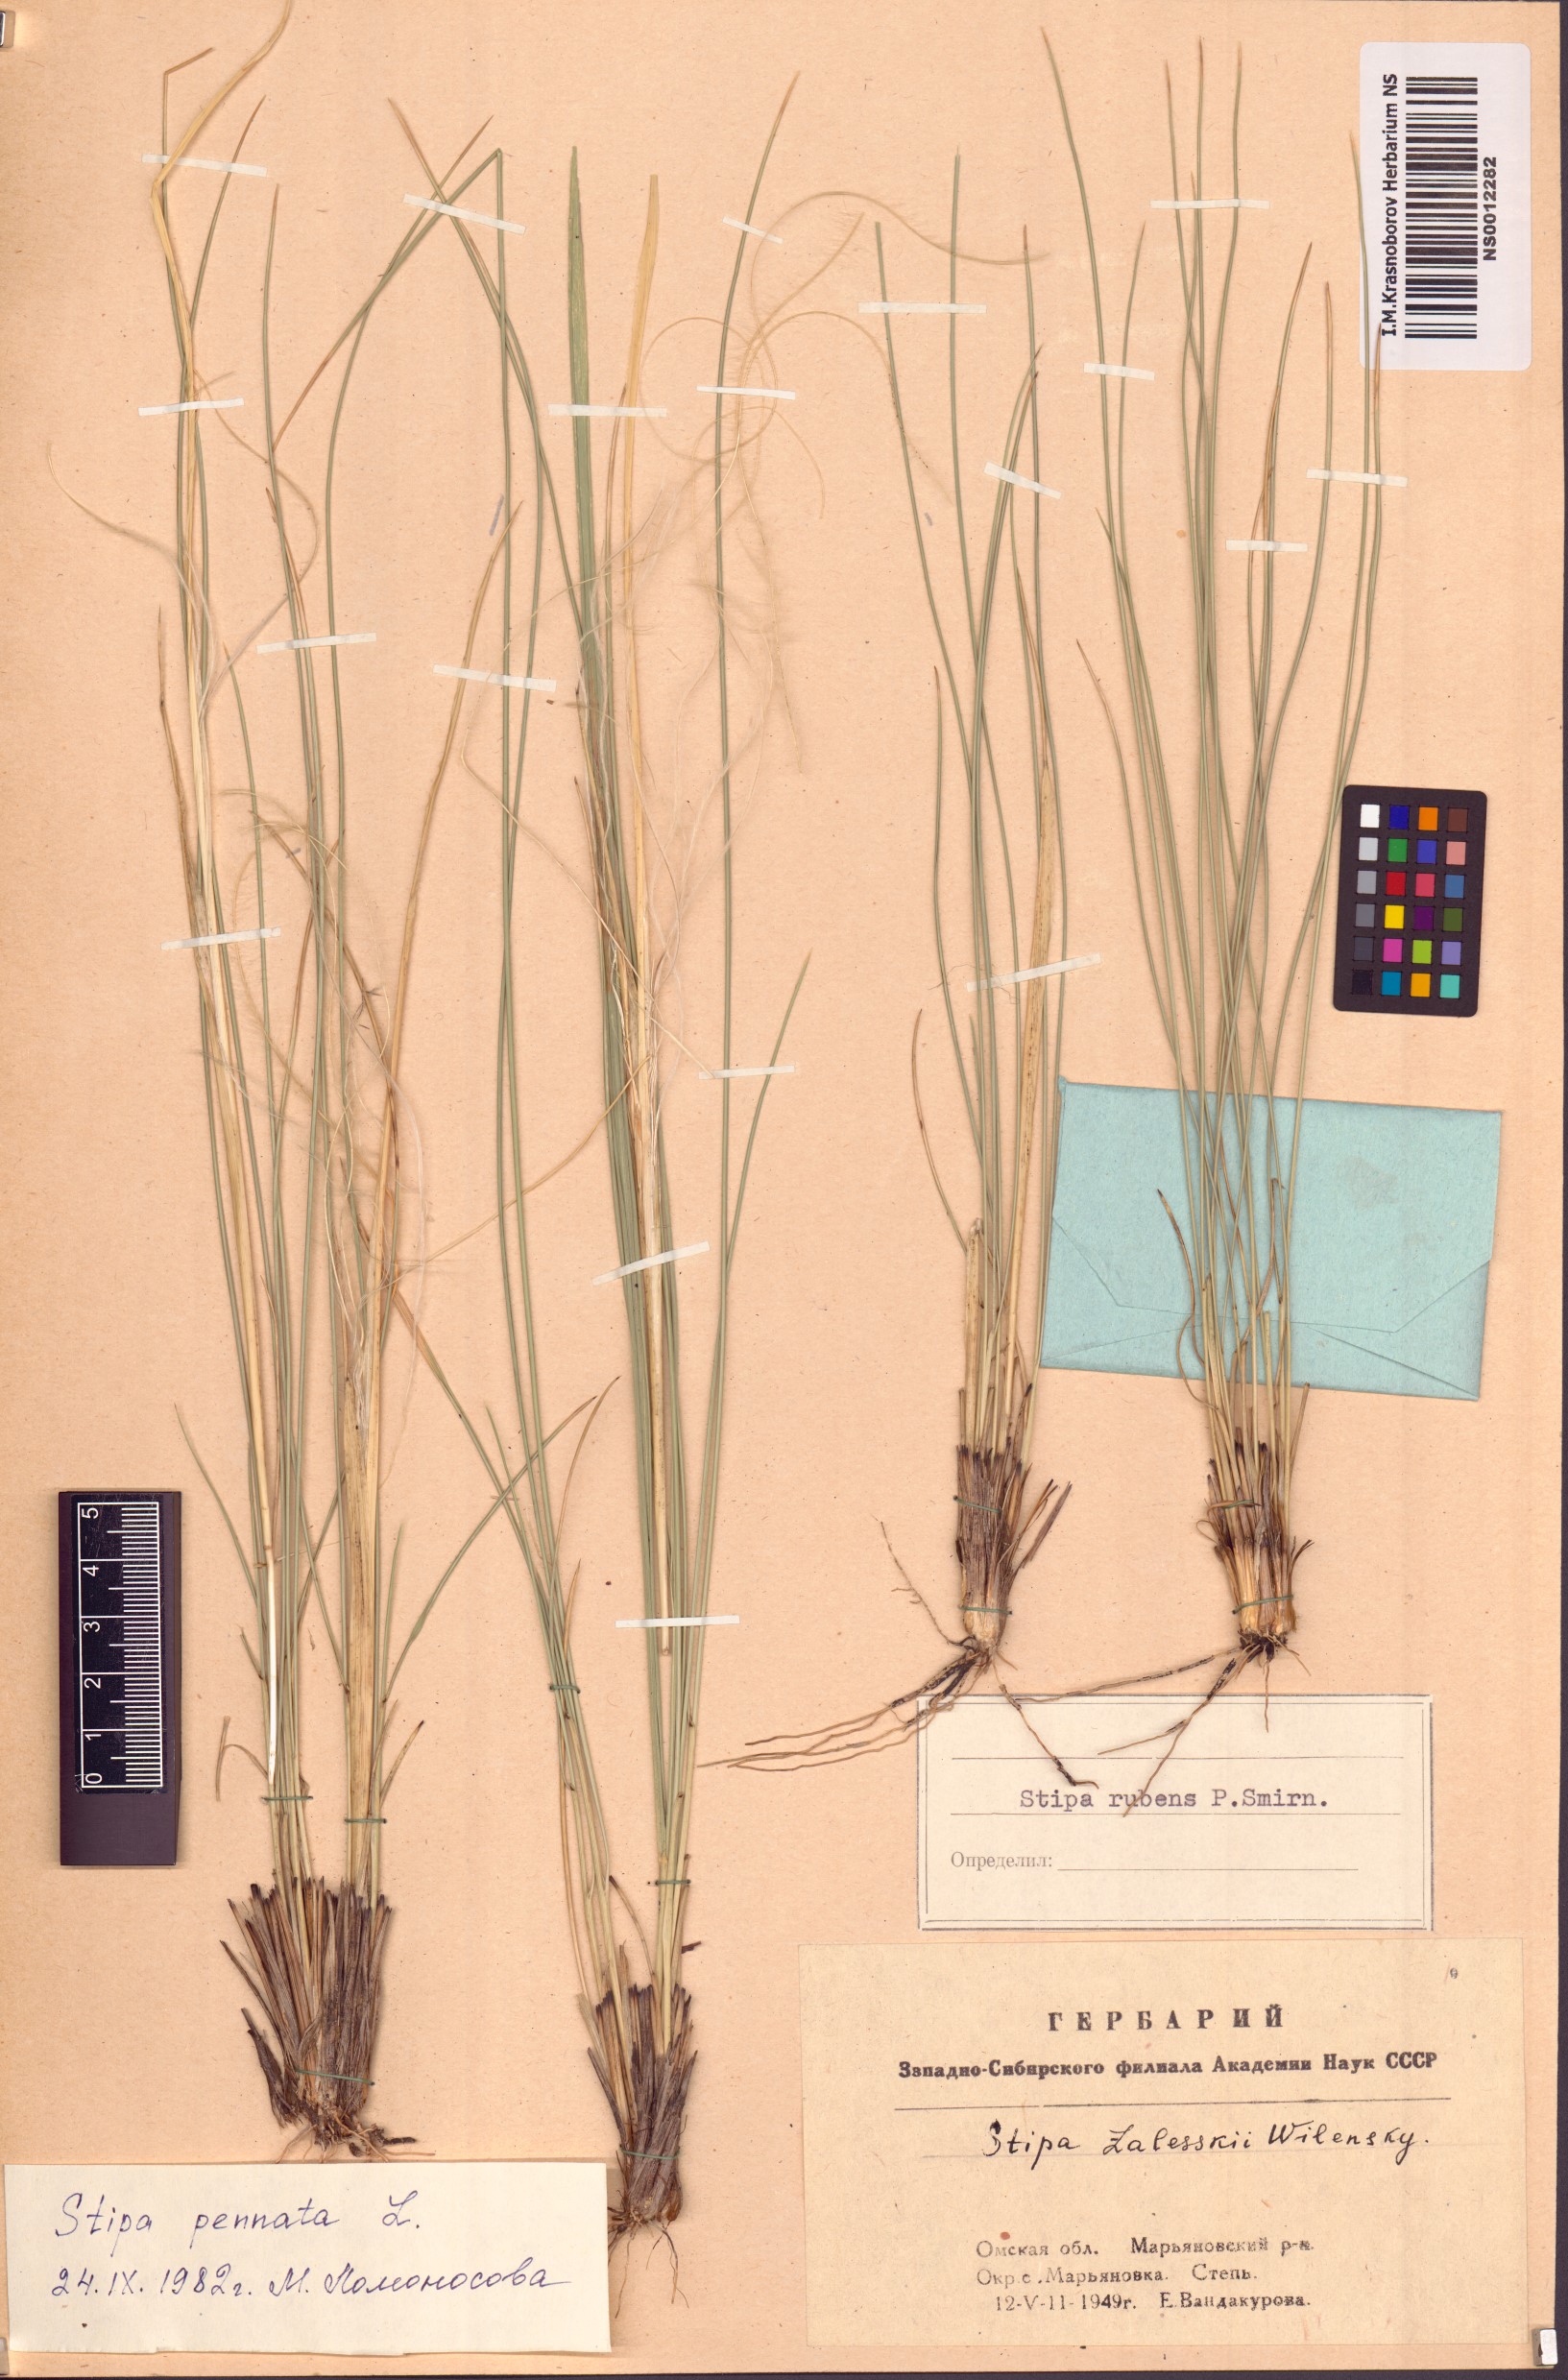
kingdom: Plantae
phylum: Tracheophyta
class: Liliopsida
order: Poales
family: Poaceae
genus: Stipa
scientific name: Stipa pennata
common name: European feather grass
